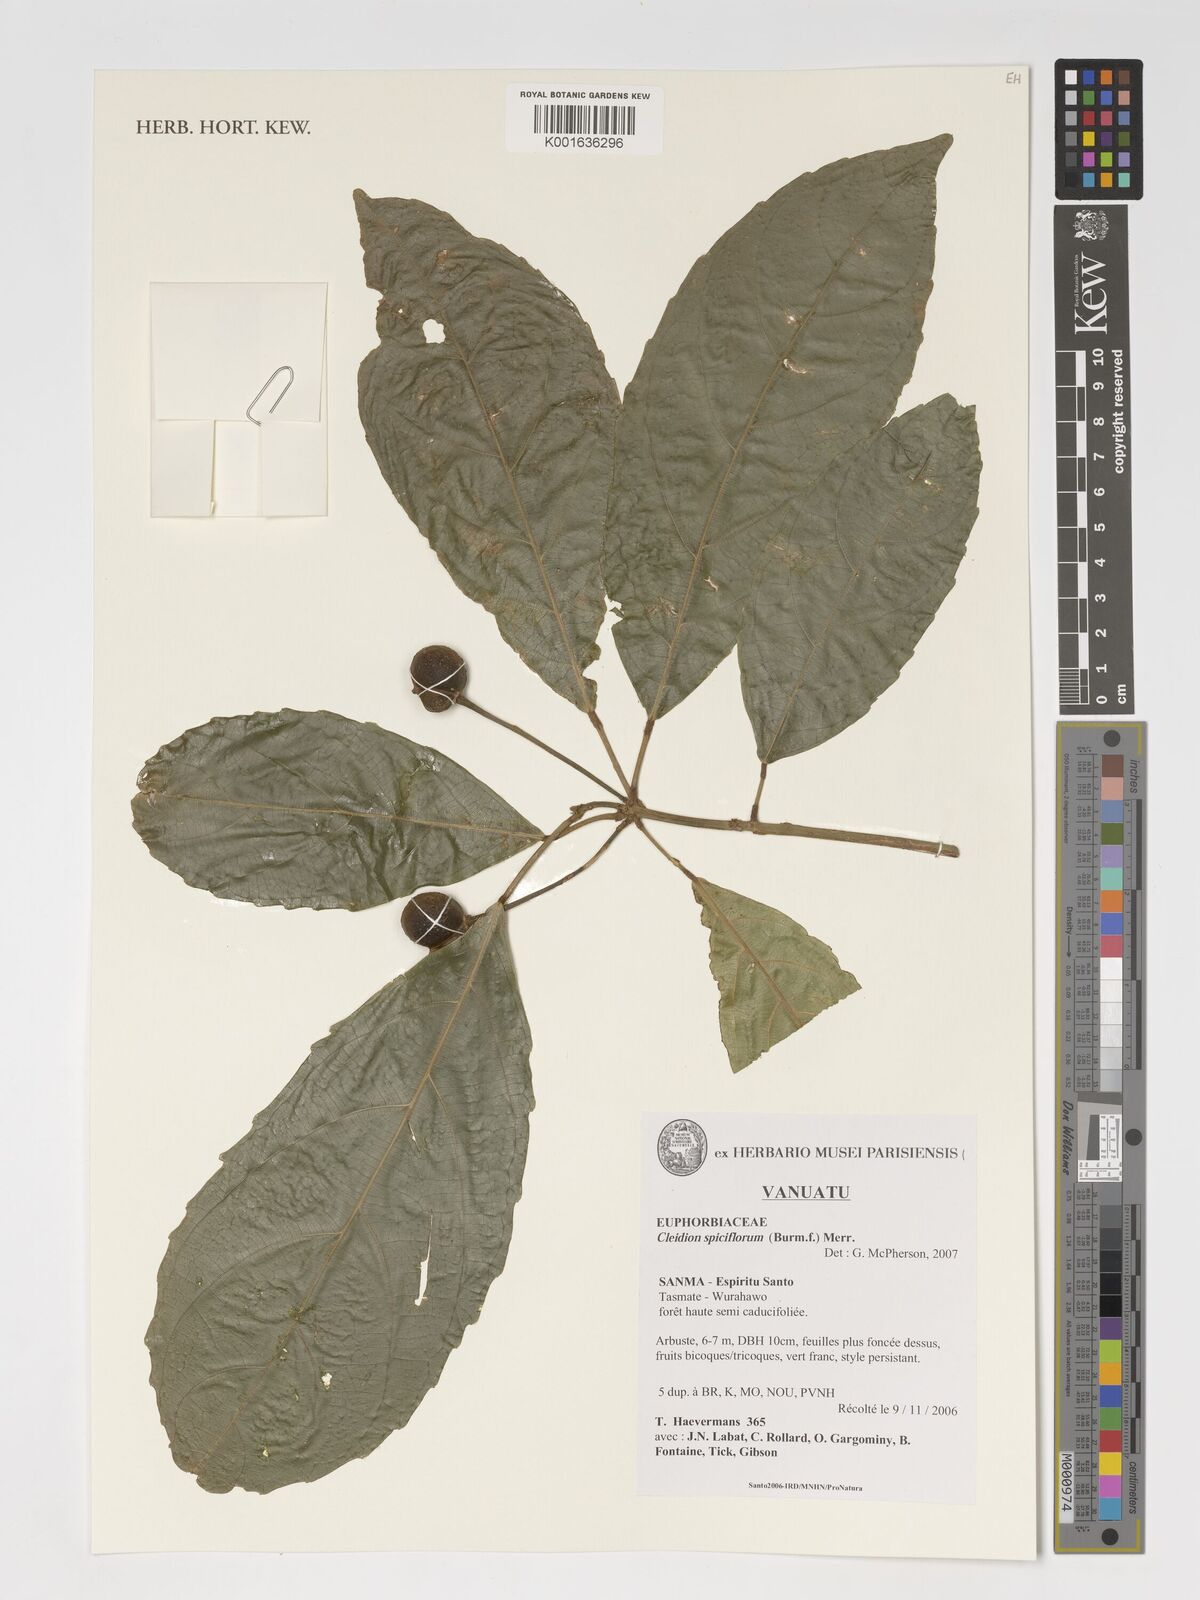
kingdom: Plantae
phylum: Tracheophyta
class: Magnoliopsida
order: Malpighiales
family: Euphorbiaceae
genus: Acalypha
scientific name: Acalypha spiciflora
